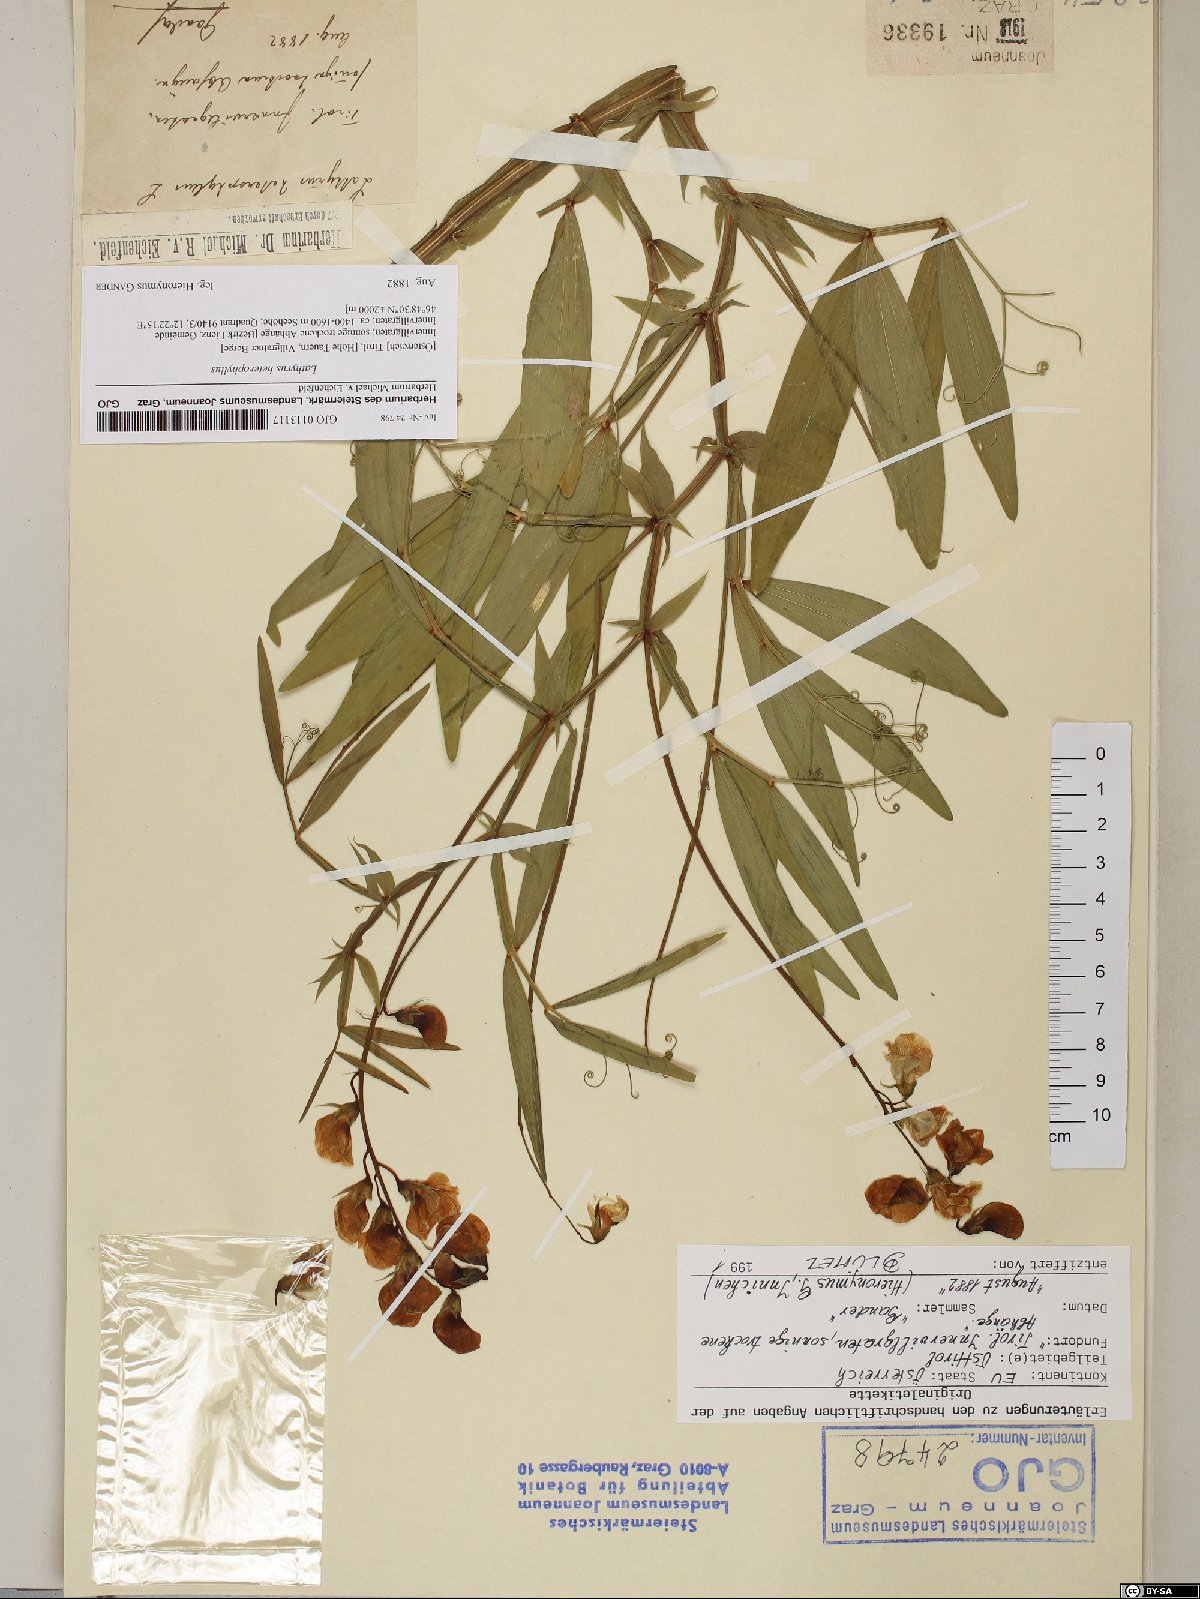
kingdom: Plantae
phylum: Tracheophyta
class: Magnoliopsida
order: Fabales
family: Fabaceae
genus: Lathyrus
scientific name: Lathyrus heterophyllus
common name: Norfolk everlasting-pea
